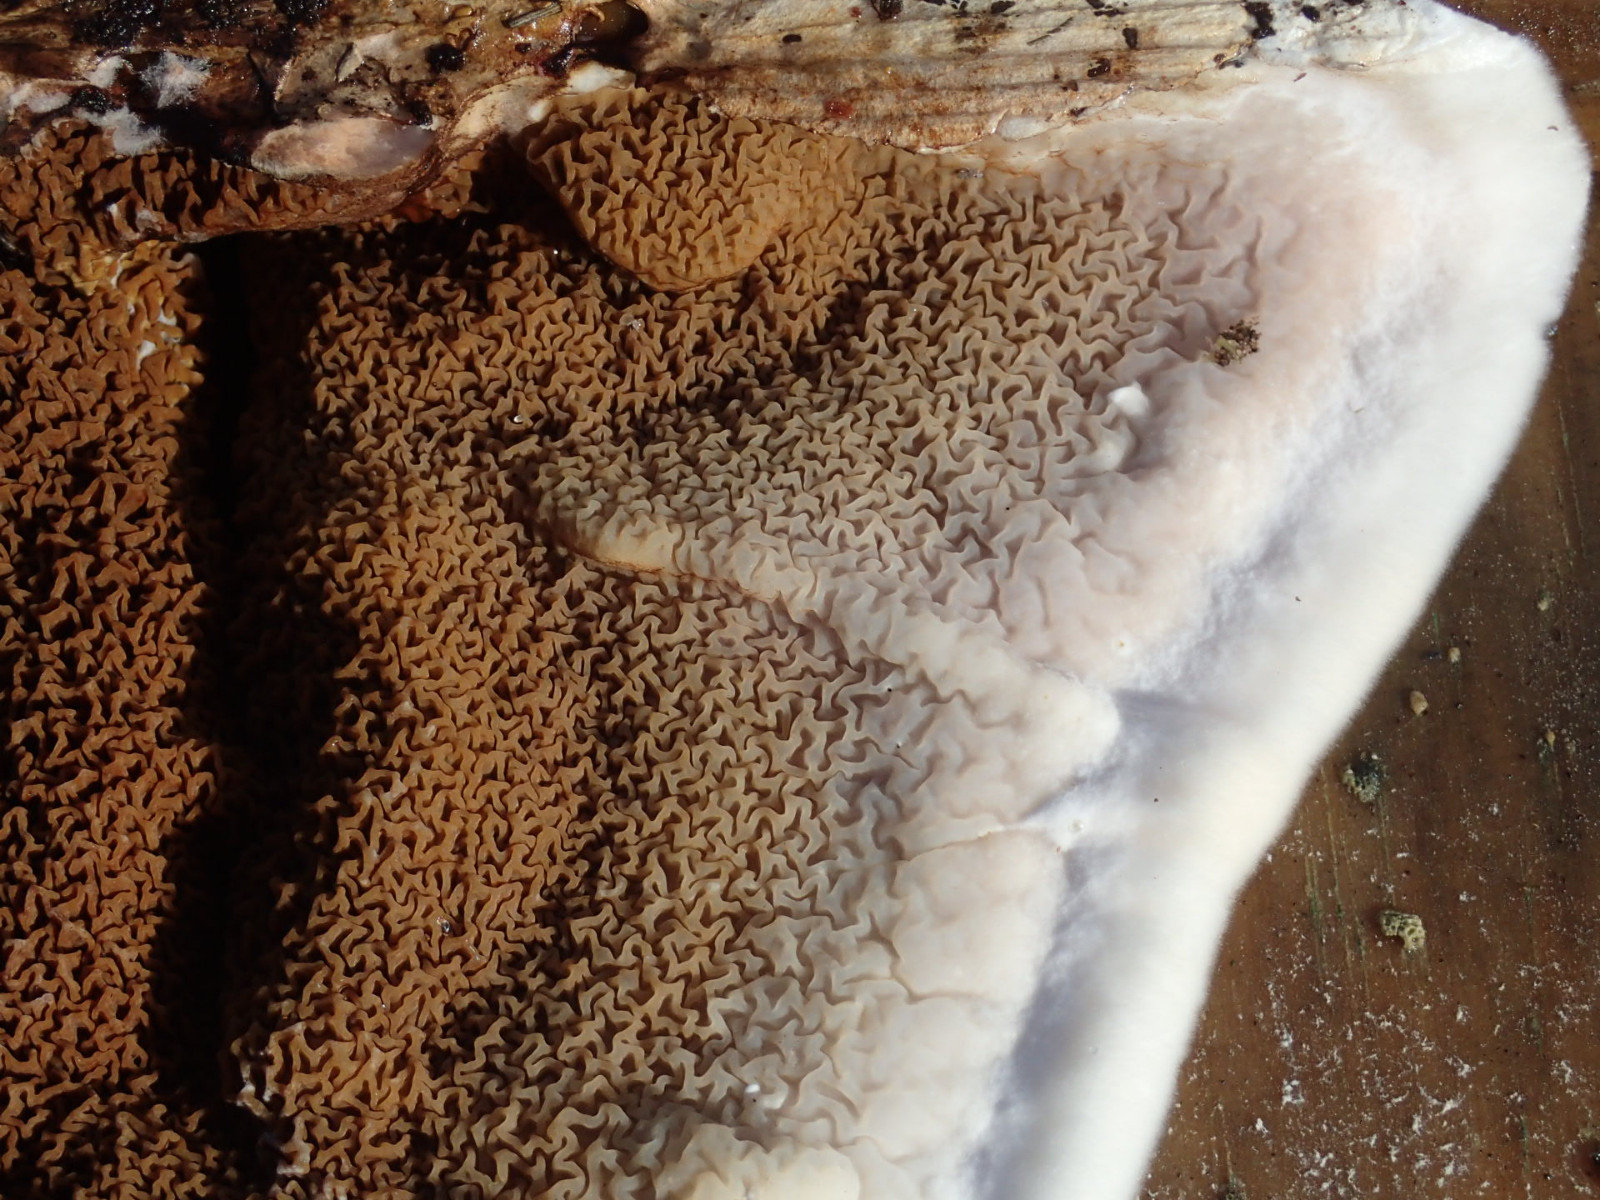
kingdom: Fungi
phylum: Basidiomycota
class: Agaricomycetes
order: Boletales
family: Serpulaceae
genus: Serpula
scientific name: Serpula himantioides
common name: tyndkødet hussvamp
